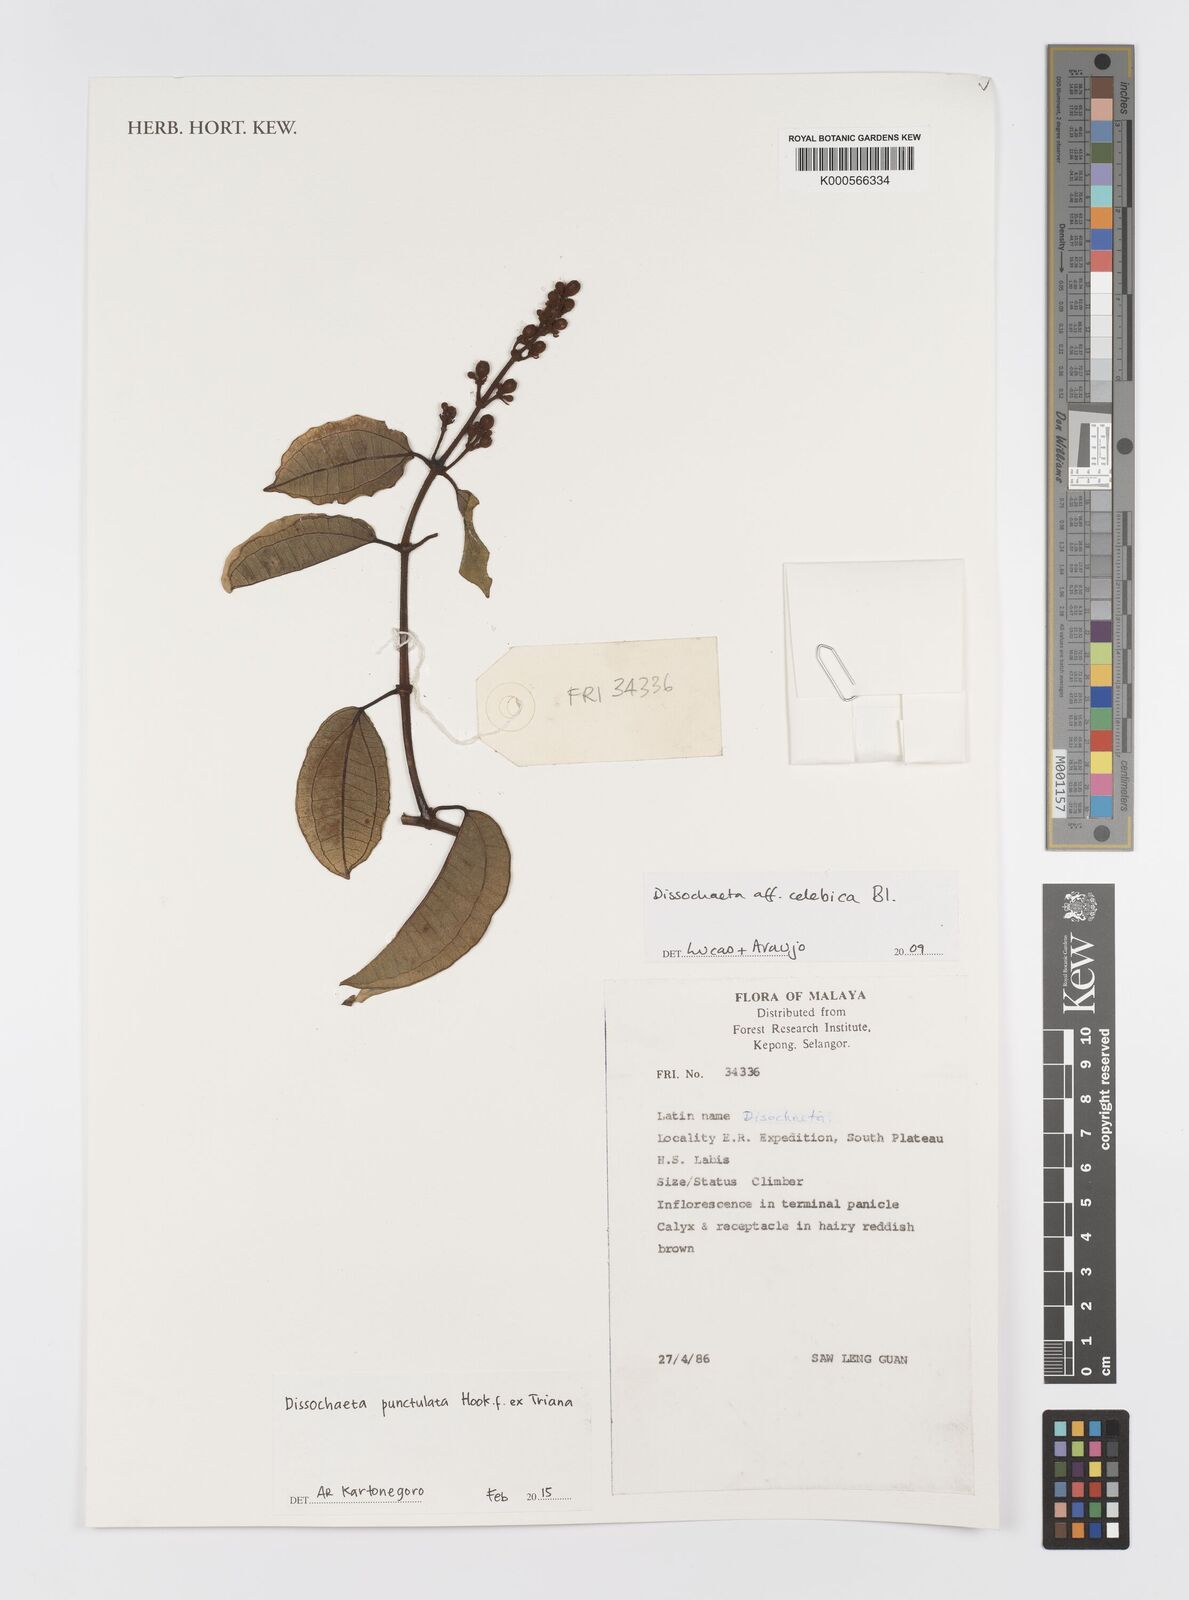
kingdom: Plantae
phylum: Tracheophyta
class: Magnoliopsida
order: Myrtales
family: Melastomataceae
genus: Dissochaeta
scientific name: Dissochaeta punctulata
